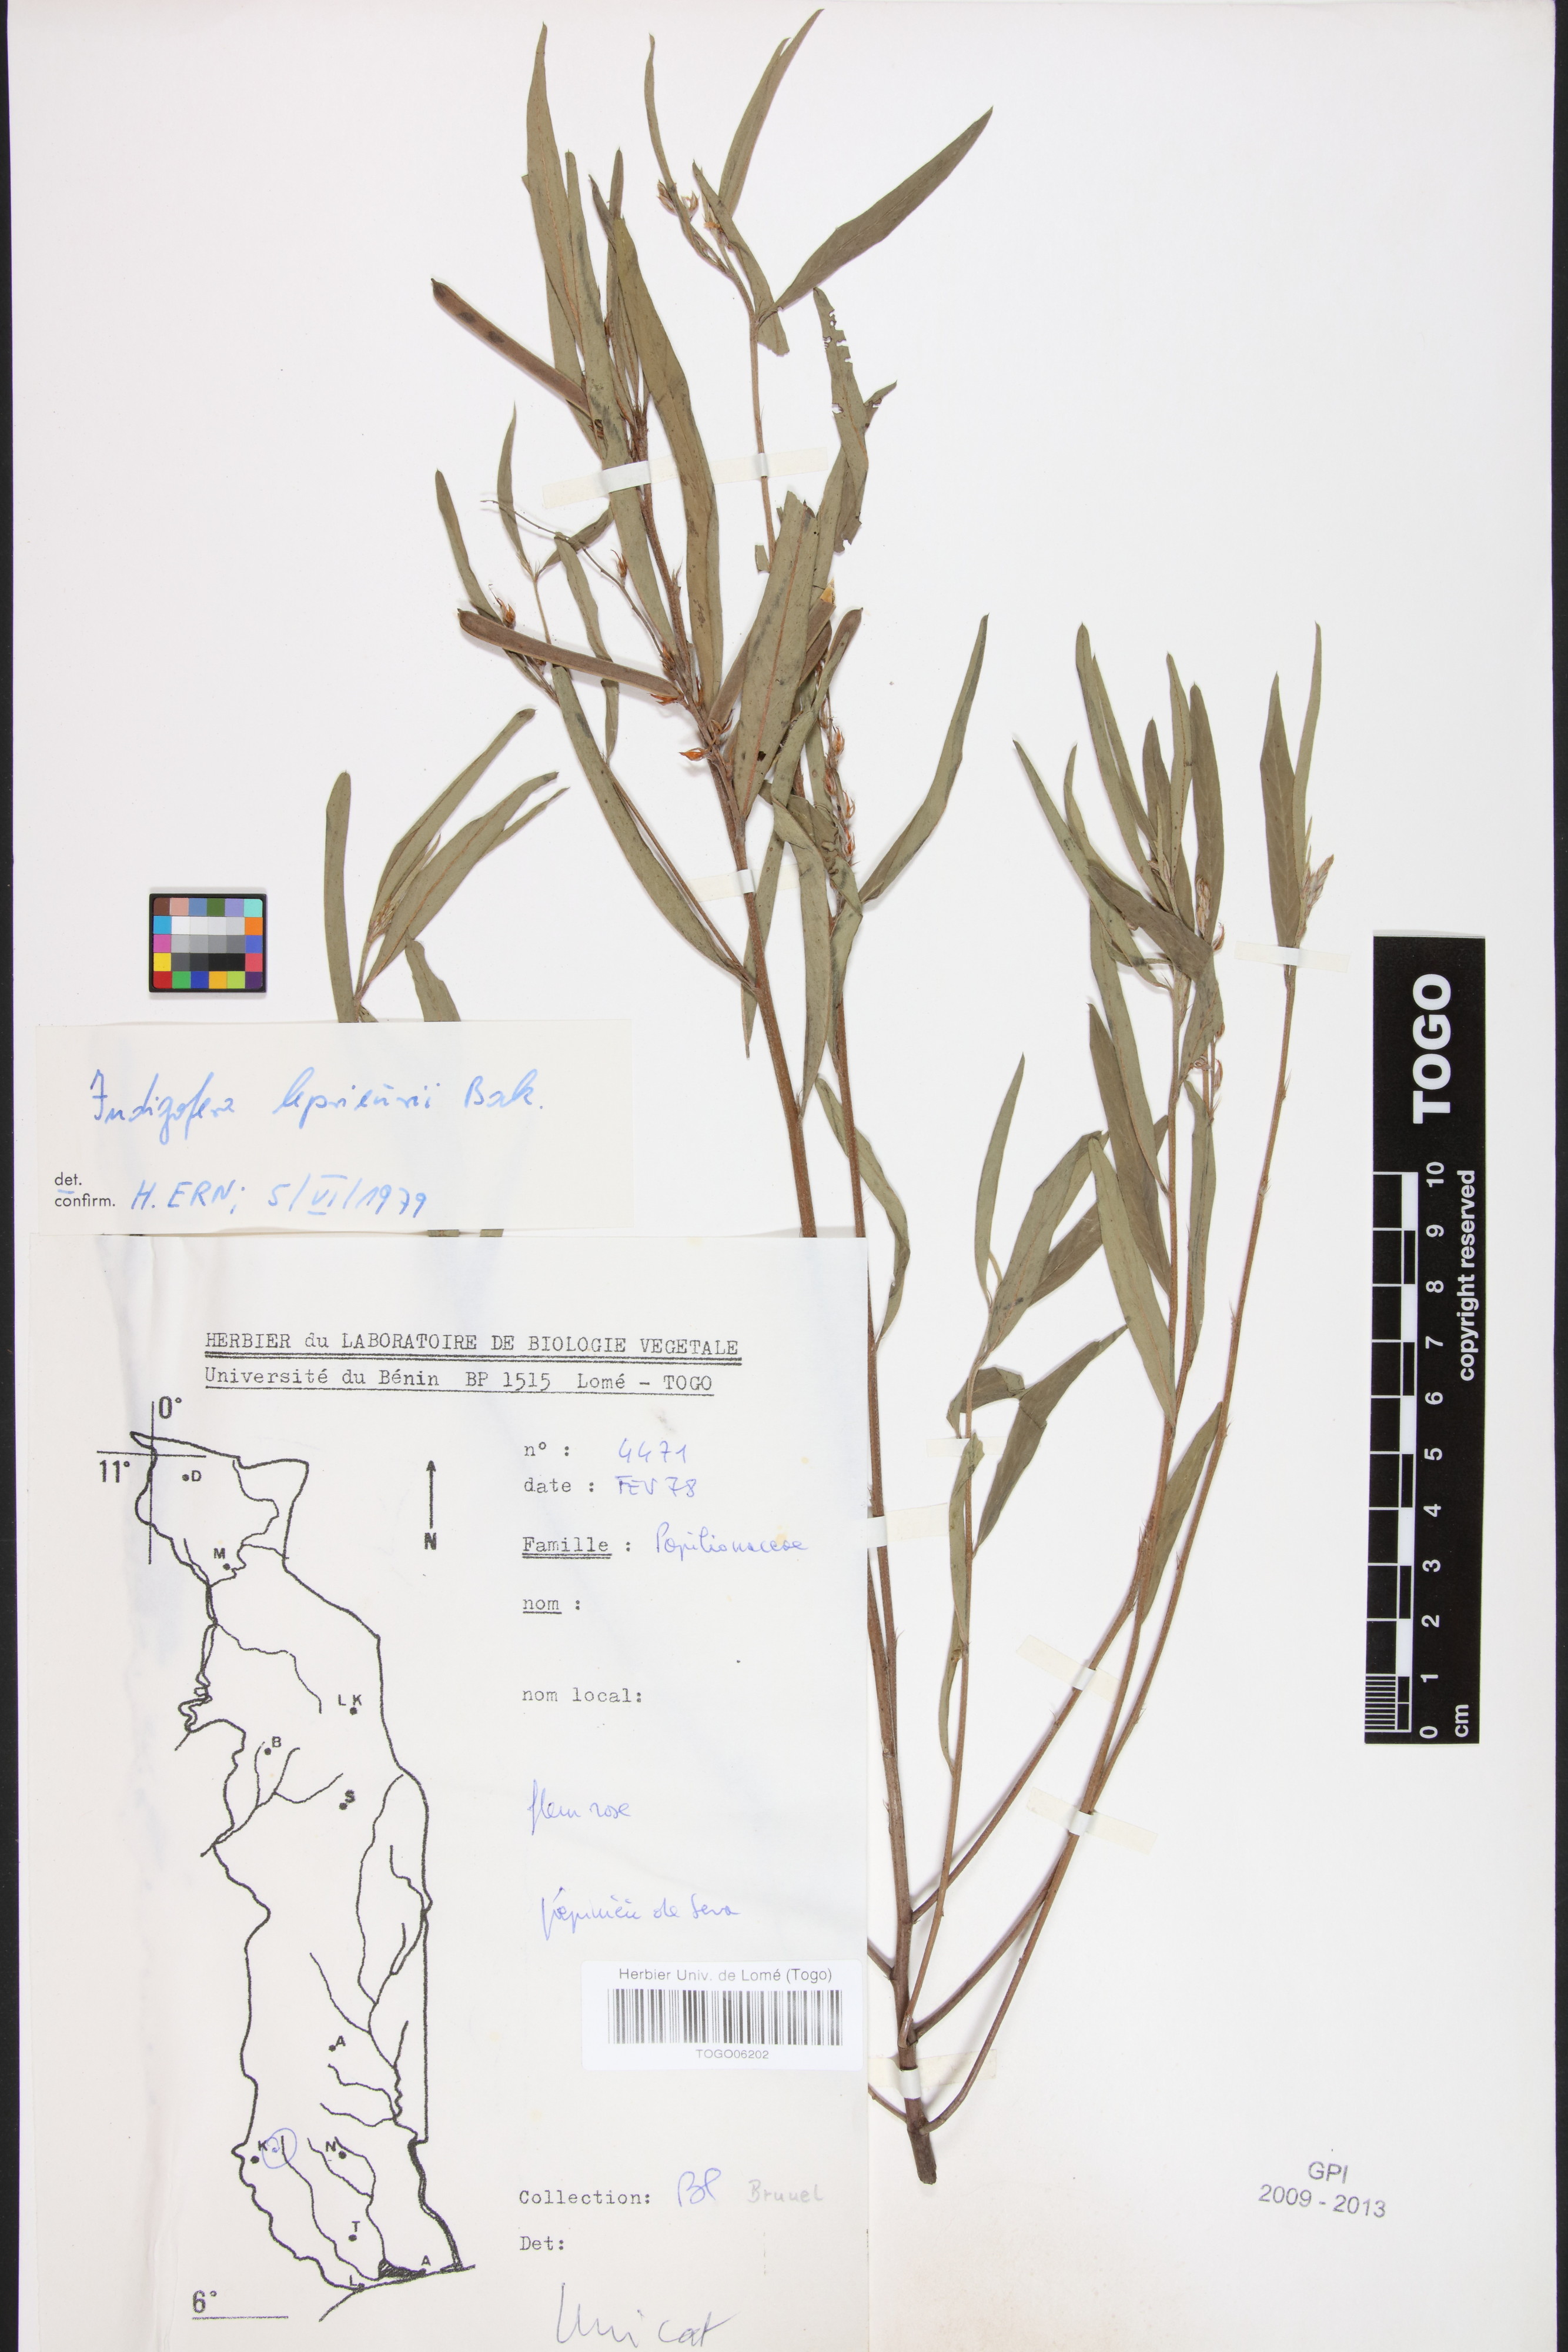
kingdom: Plantae
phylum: Tracheophyta
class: Magnoliopsida
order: Fabales
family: Fabaceae
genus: Indigofera
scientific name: Indigofera leprieurii
